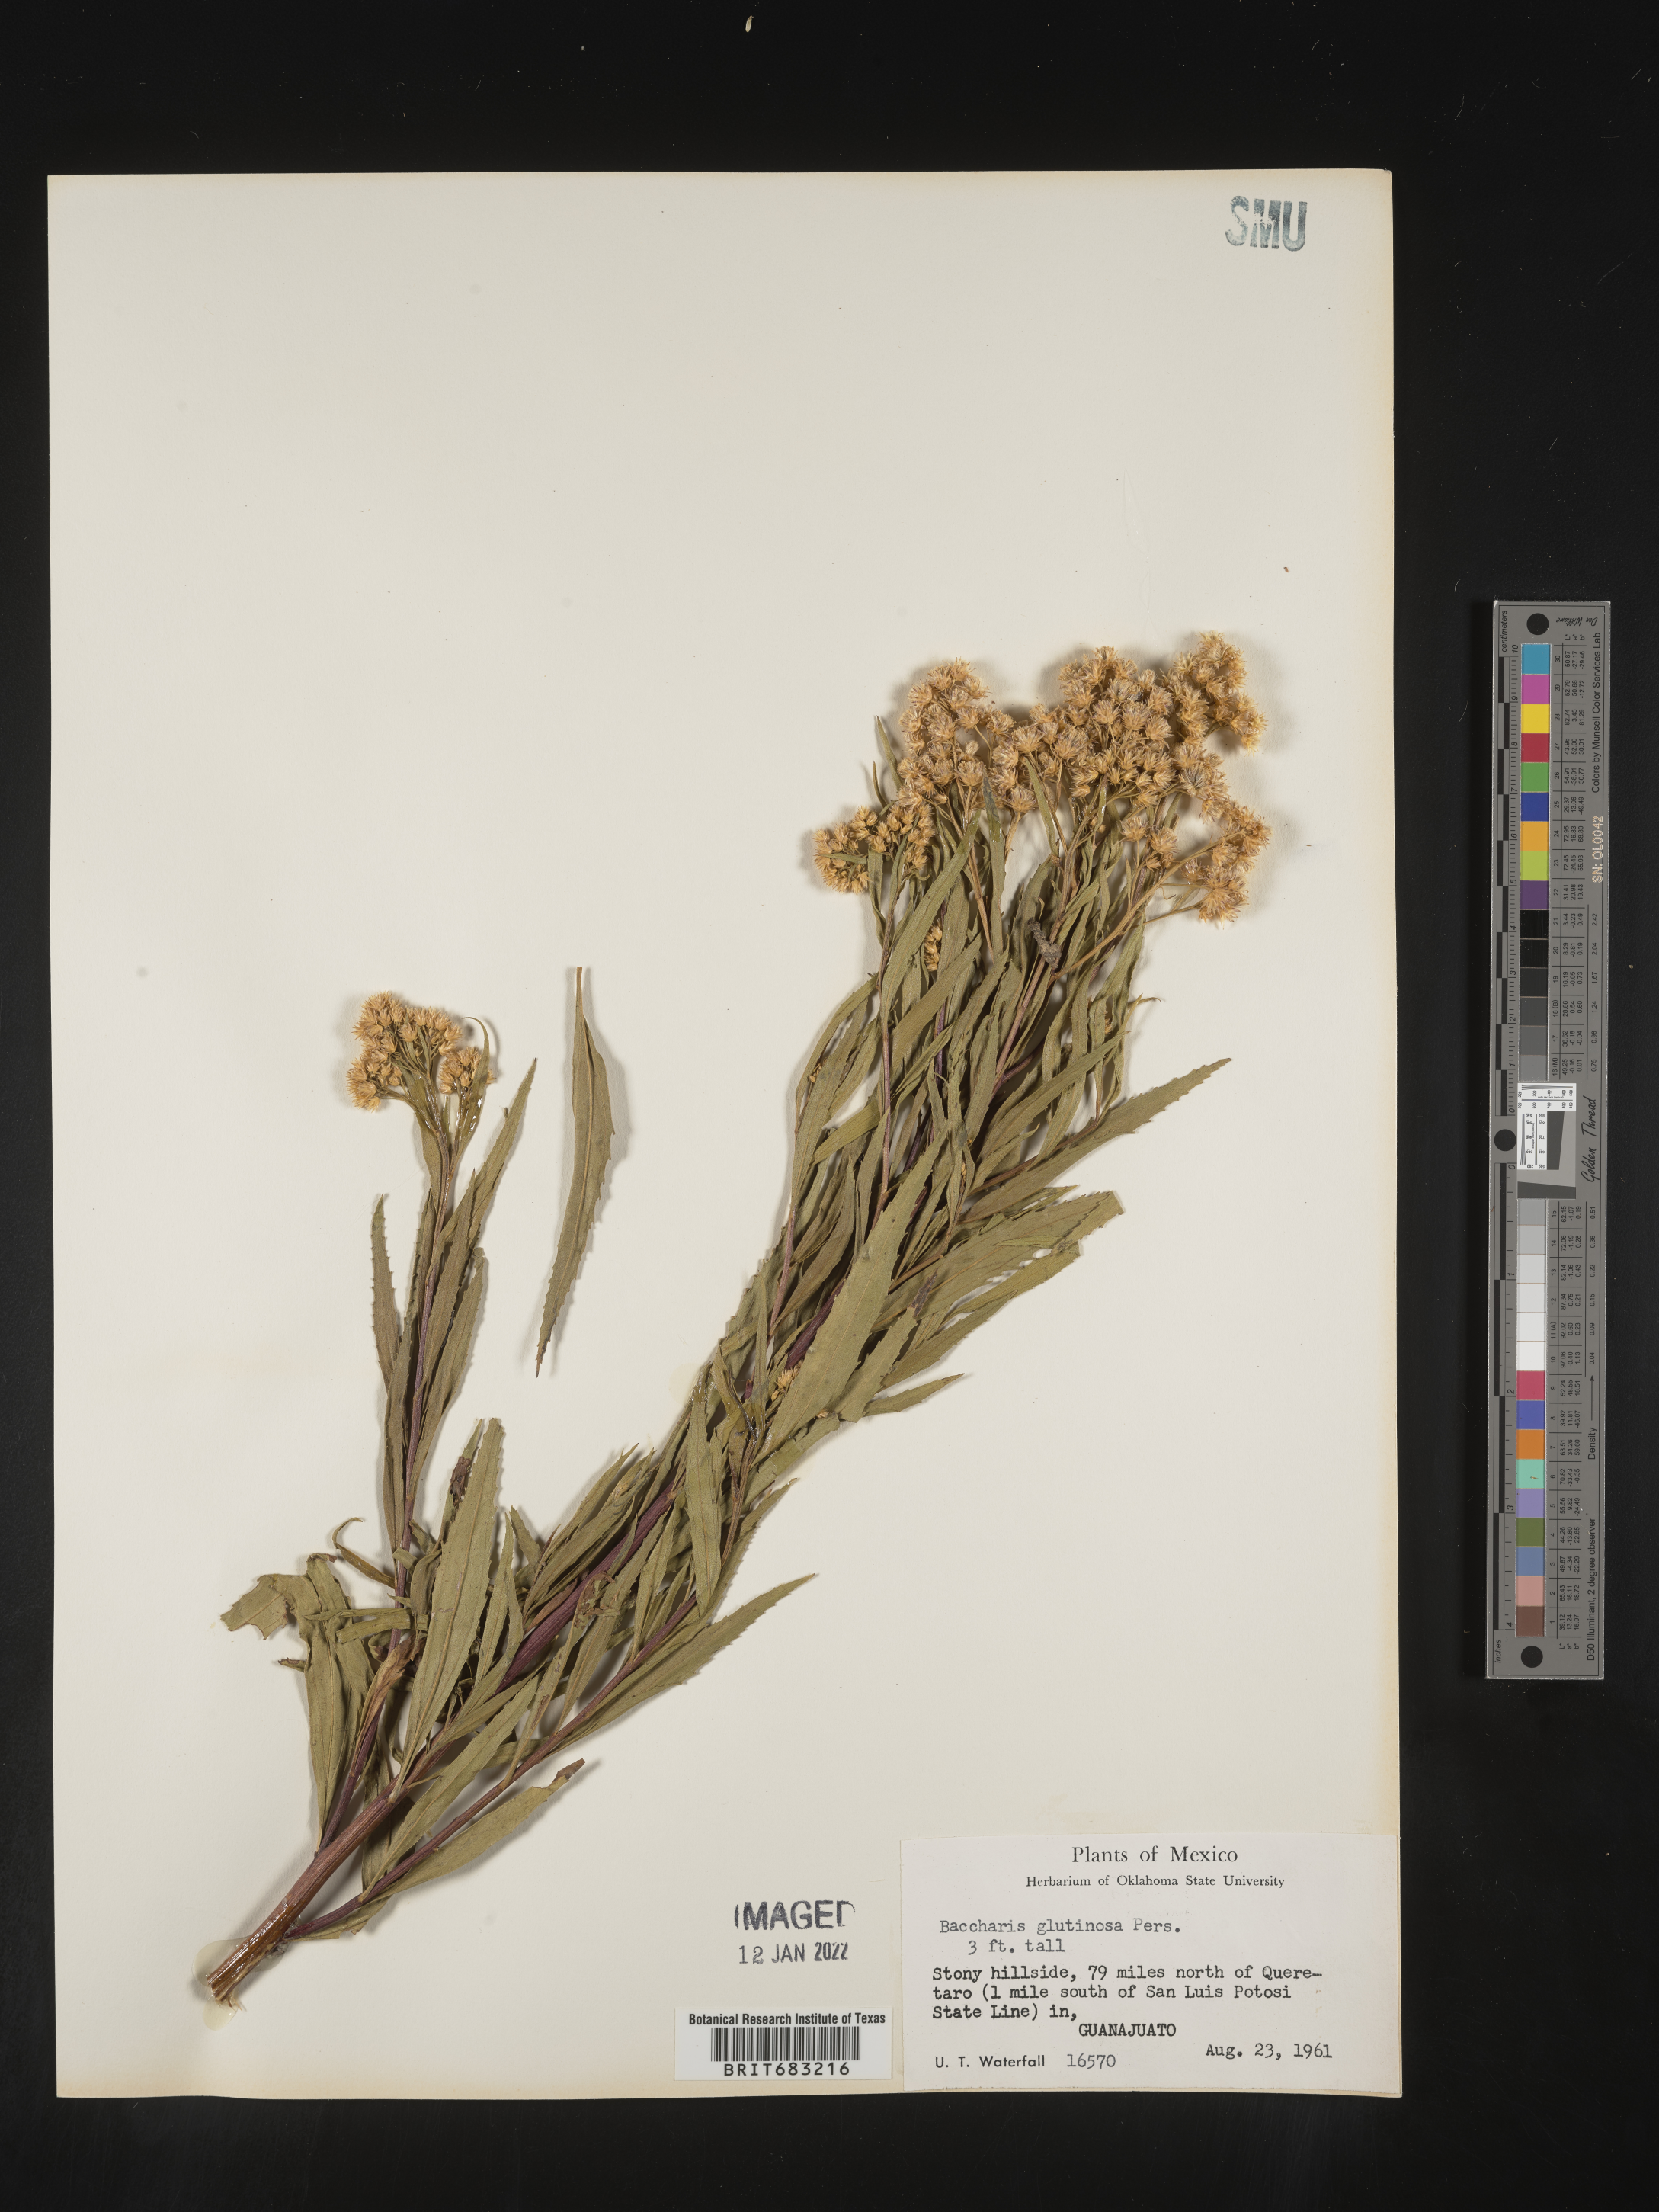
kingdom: Plantae
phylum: Tracheophyta
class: Magnoliopsida
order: Asterales
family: Asteraceae
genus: Baccharis
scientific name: Baccharis salicifolia
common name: Sticky baccharis
